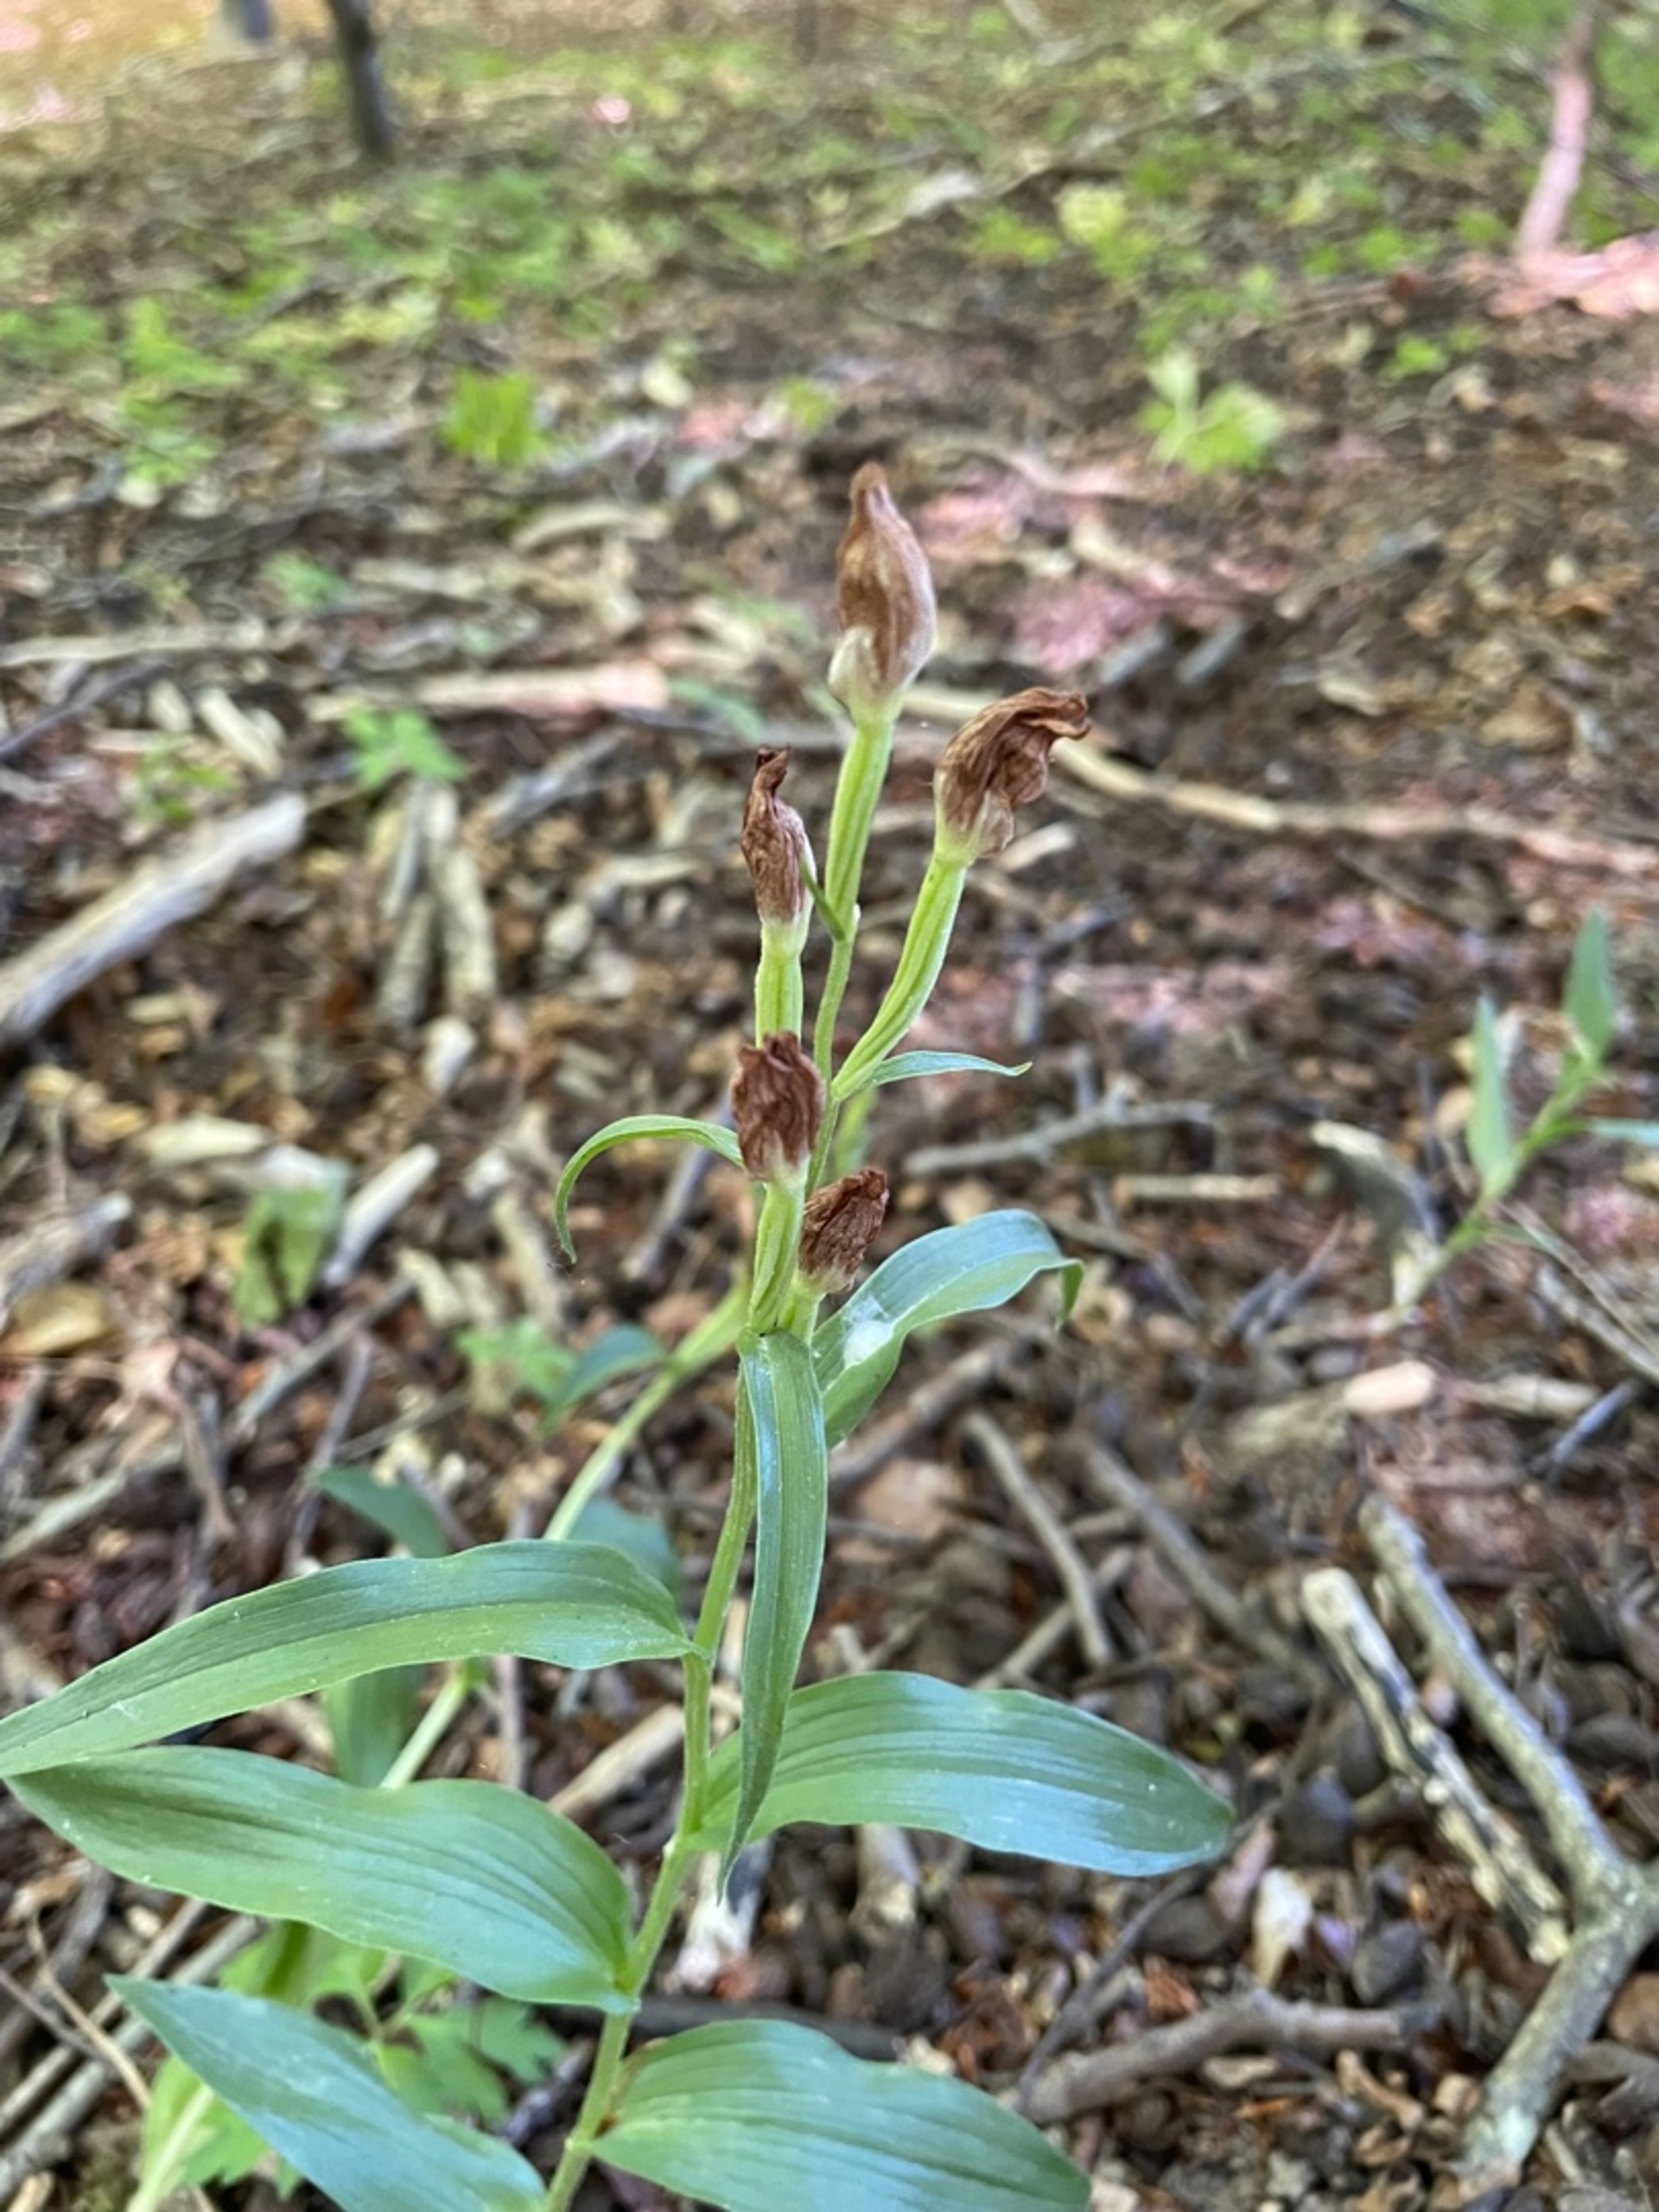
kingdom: Plantae
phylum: Tracheophyta
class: Liliopsida
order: Asparagales
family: Orchidaceae
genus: Cephalanthera
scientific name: Cephalanthera damasonium
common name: Hvidgul skovlilje
